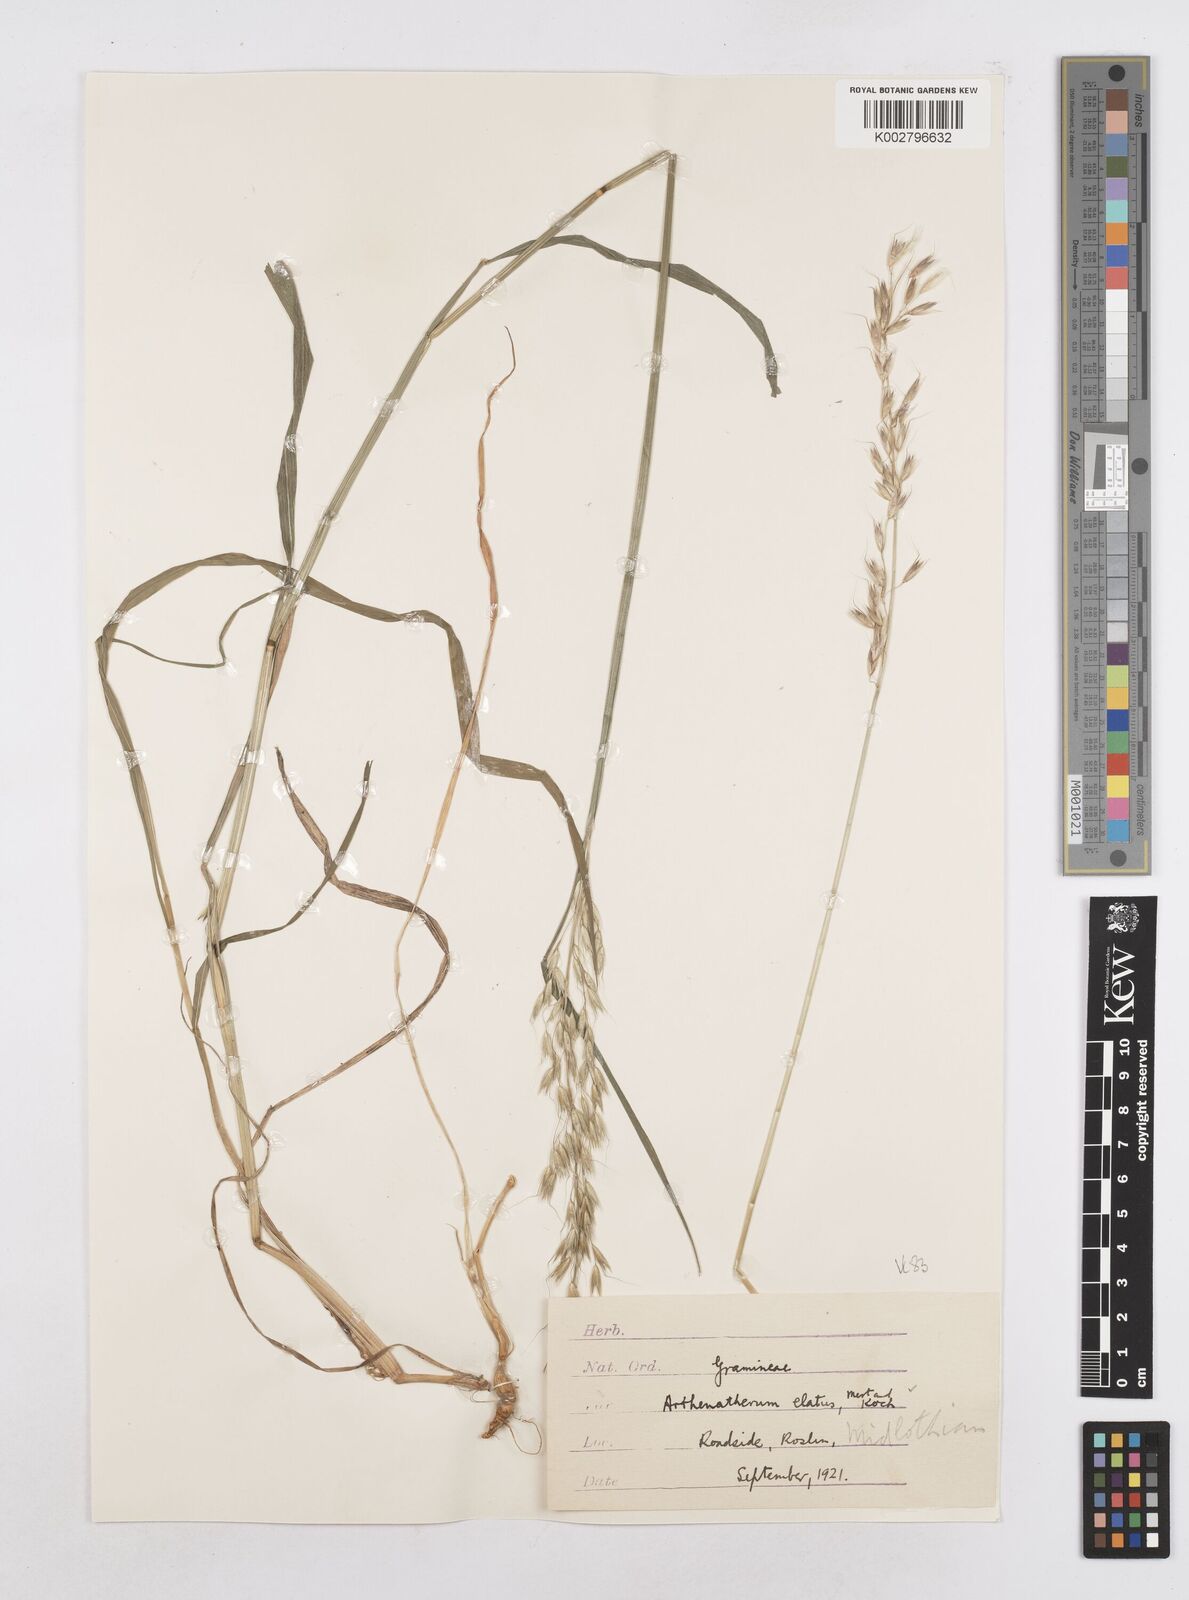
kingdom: Plantae
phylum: Tracheophyta
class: Liliopsida
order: Poales
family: Poaceae
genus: Arrhenatherum
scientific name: Arrhenatherum elatius
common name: Tall oatgrass
